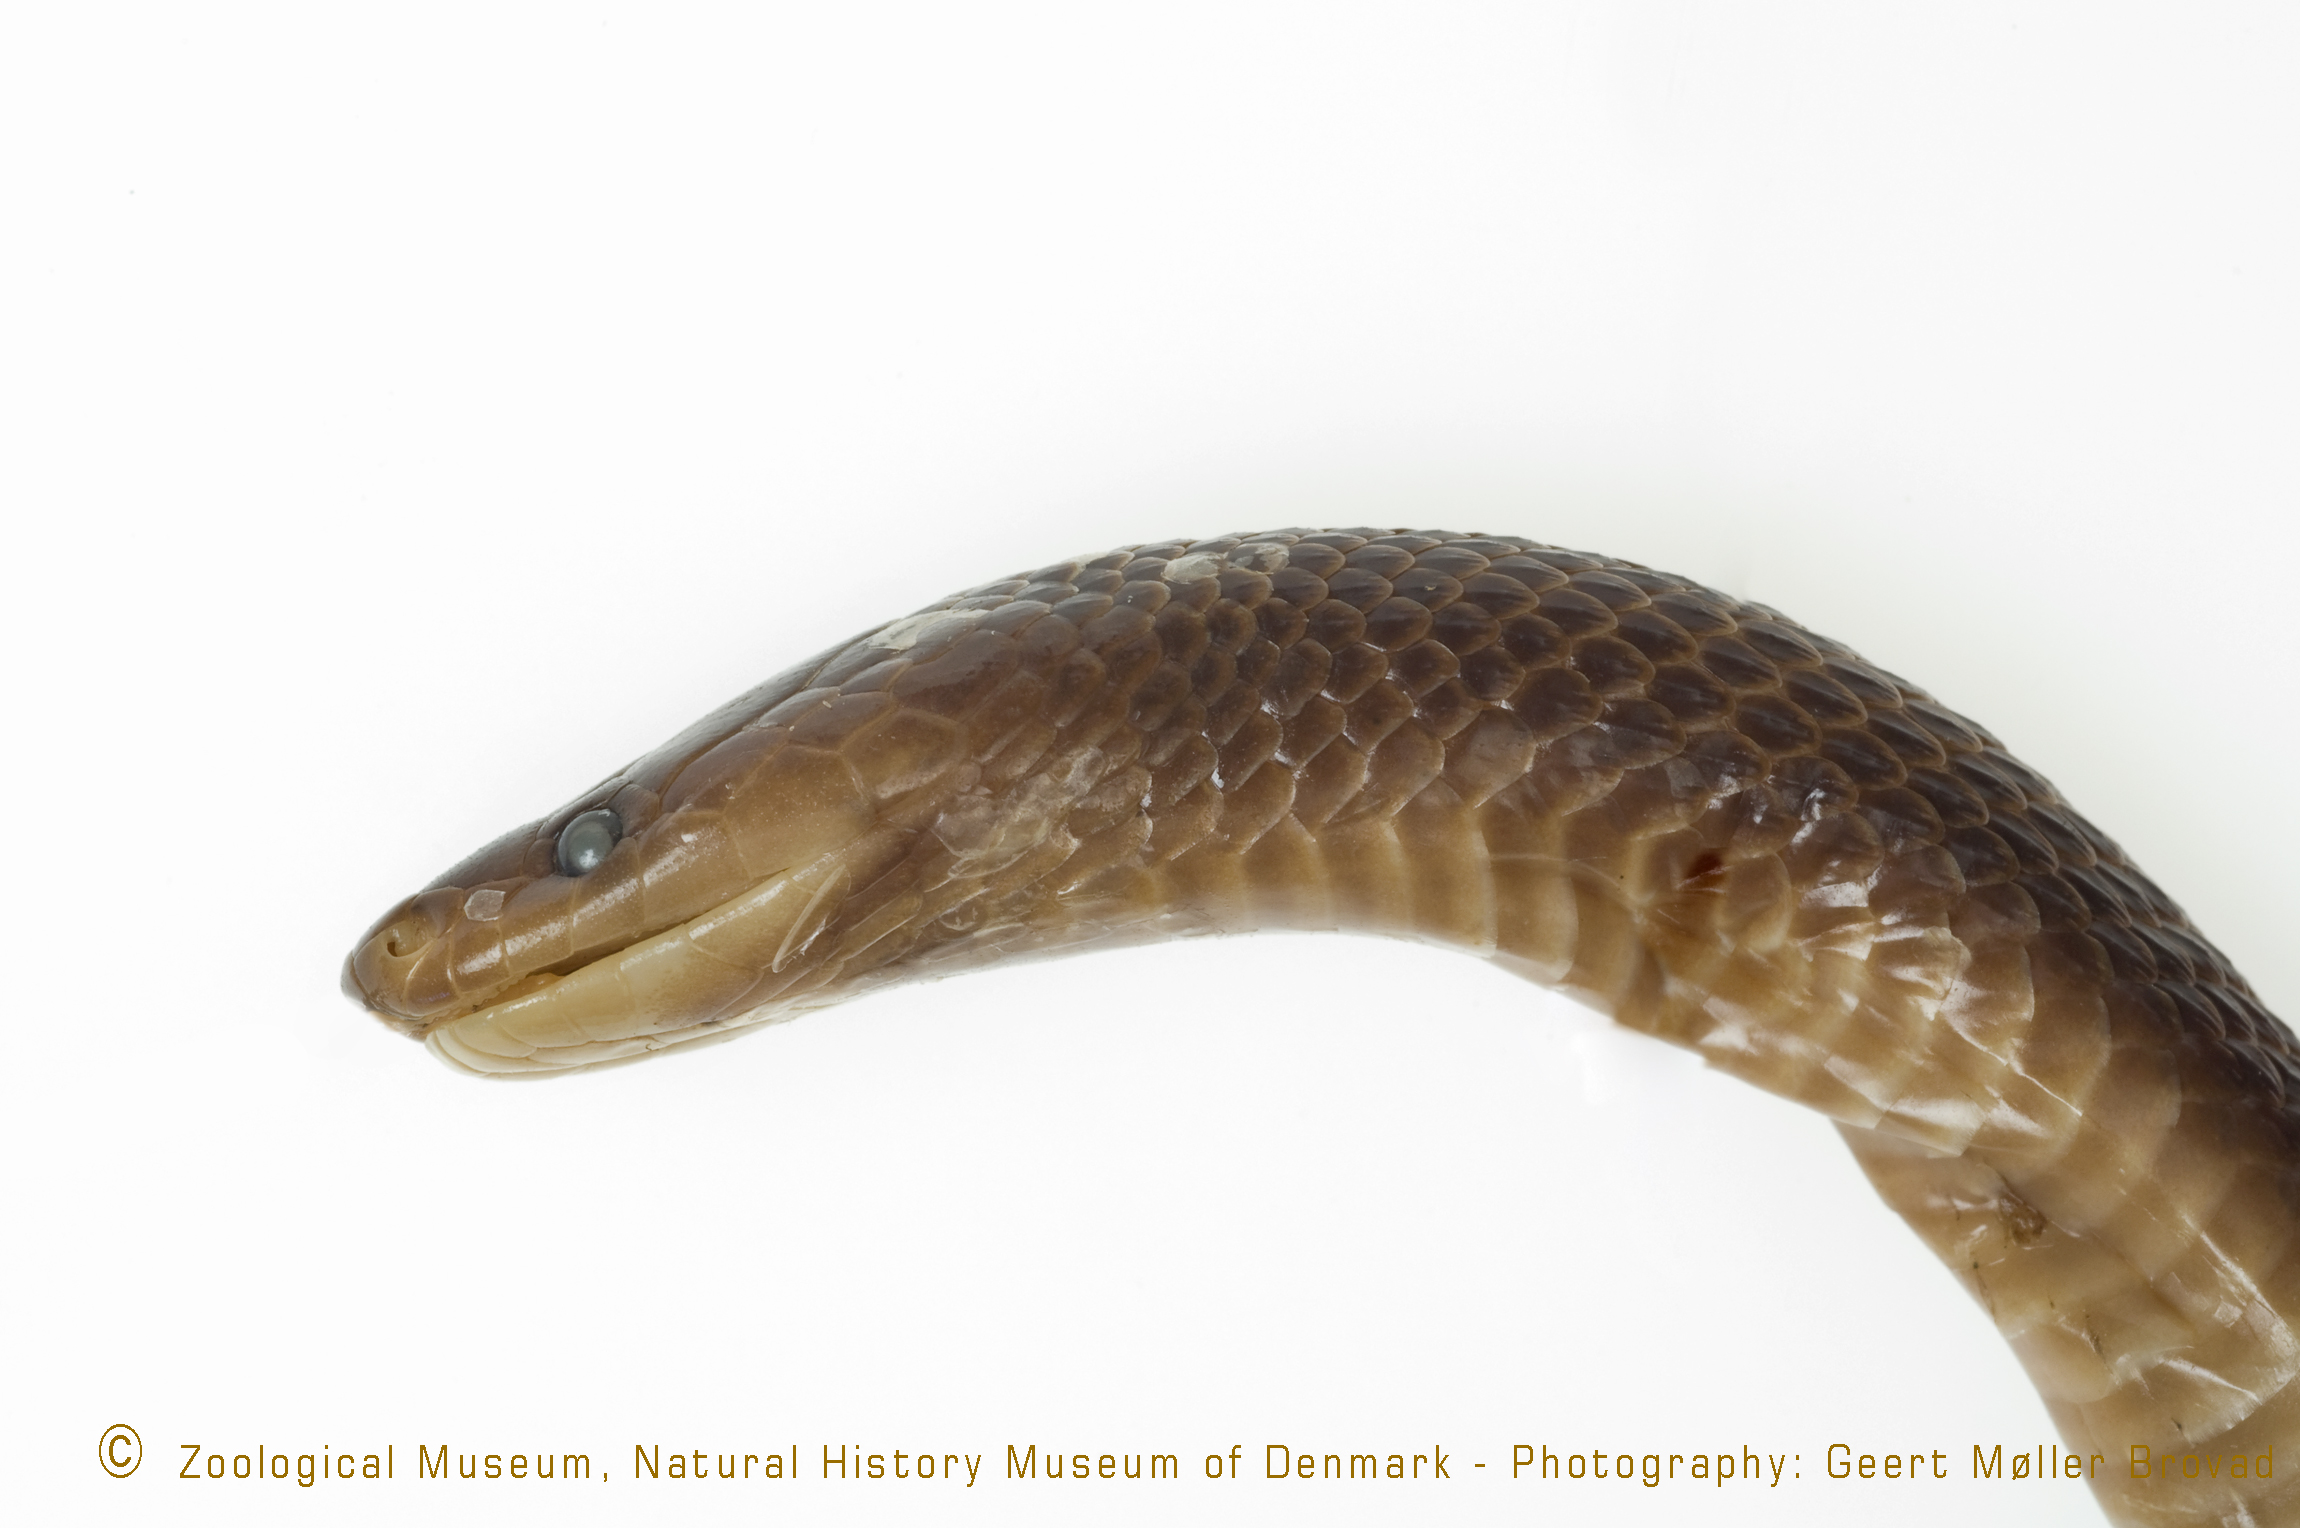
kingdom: Animalia
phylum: Chordata
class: Squamata
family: Lamprophiidae
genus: Gracililima
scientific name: Gracililima nyassae
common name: Black file snake
